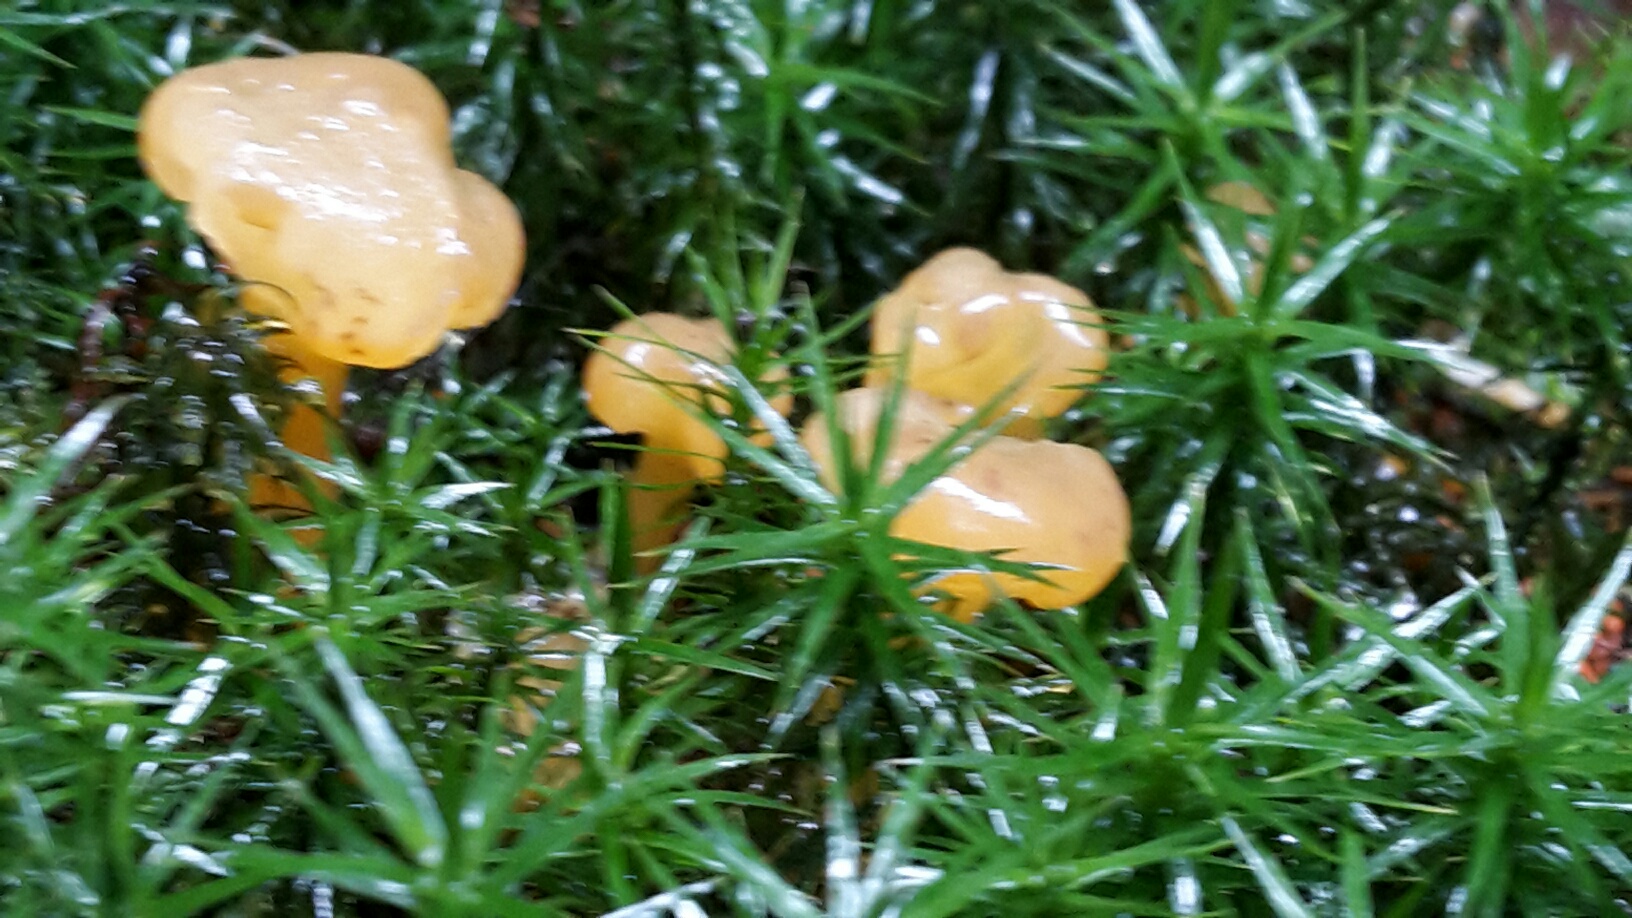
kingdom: Fungi
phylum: Ascomycota
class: Leotiomycetes
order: Leotiales
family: Leotiaceae
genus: Leotia
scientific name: Leotia lubrica
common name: ravsvamp
